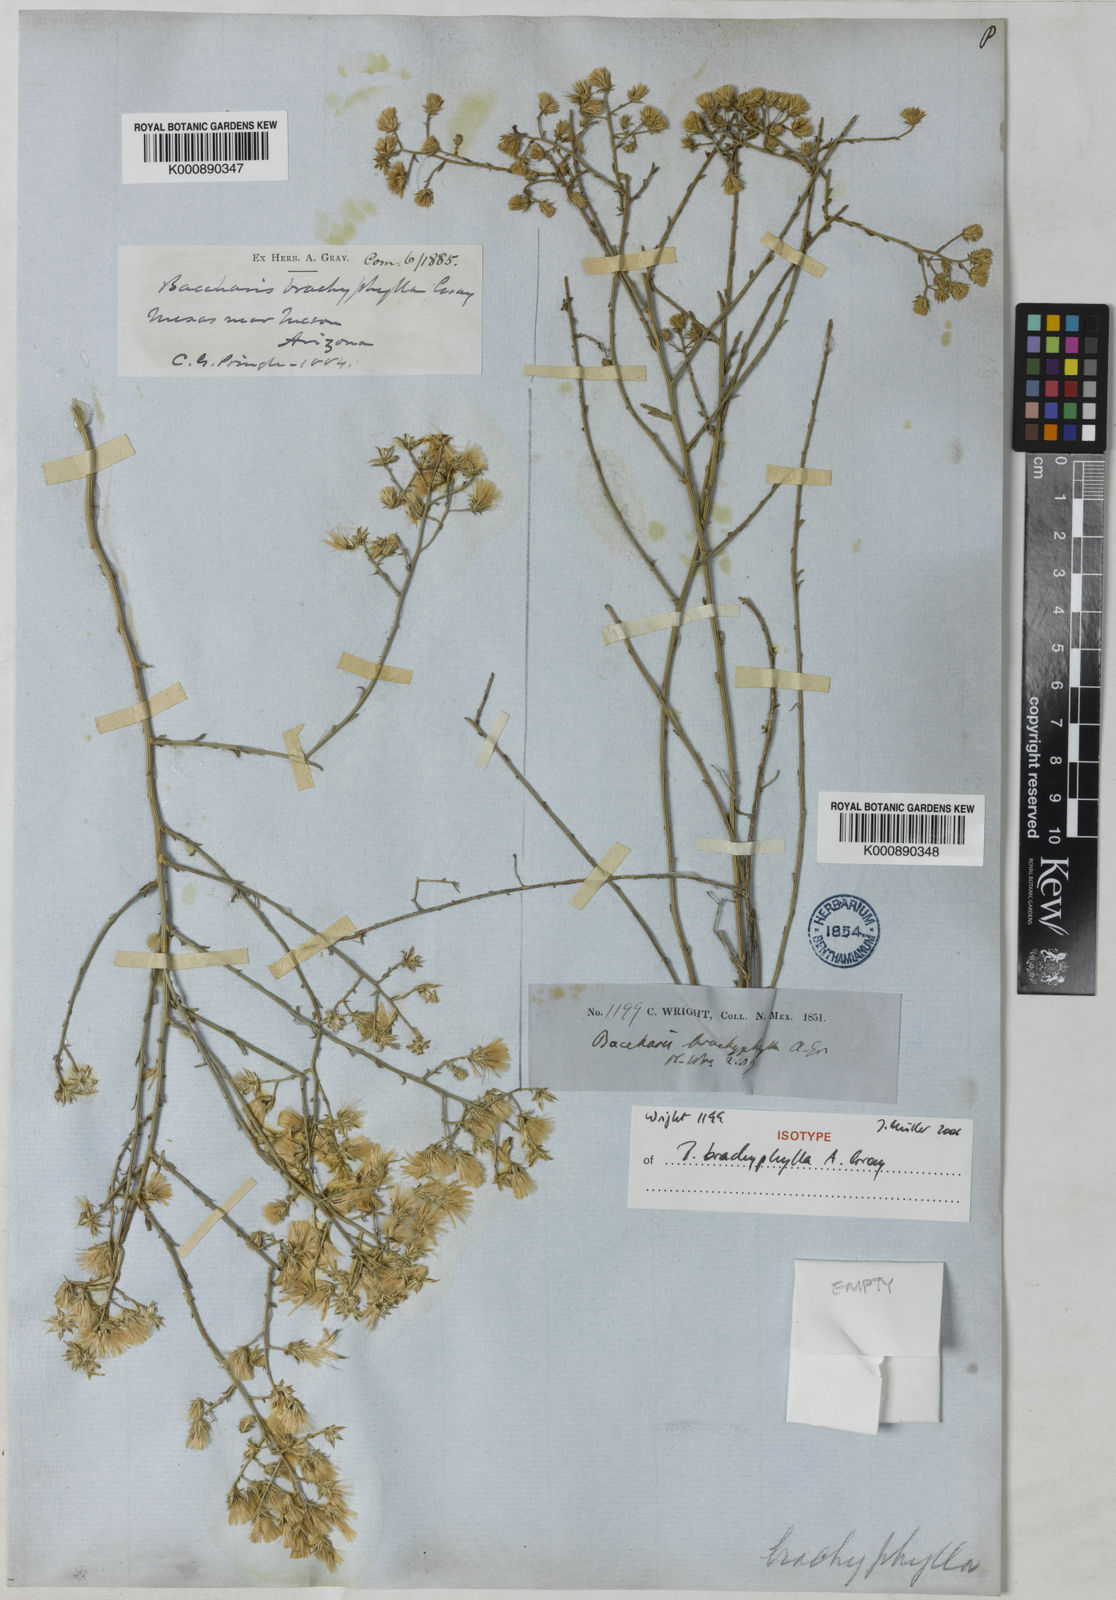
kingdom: Plantae
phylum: Tracheophyta
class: Magnoliopsida
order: Asterales
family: Asteraceae
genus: Baccharis
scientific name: Baccharis brachyphylla
